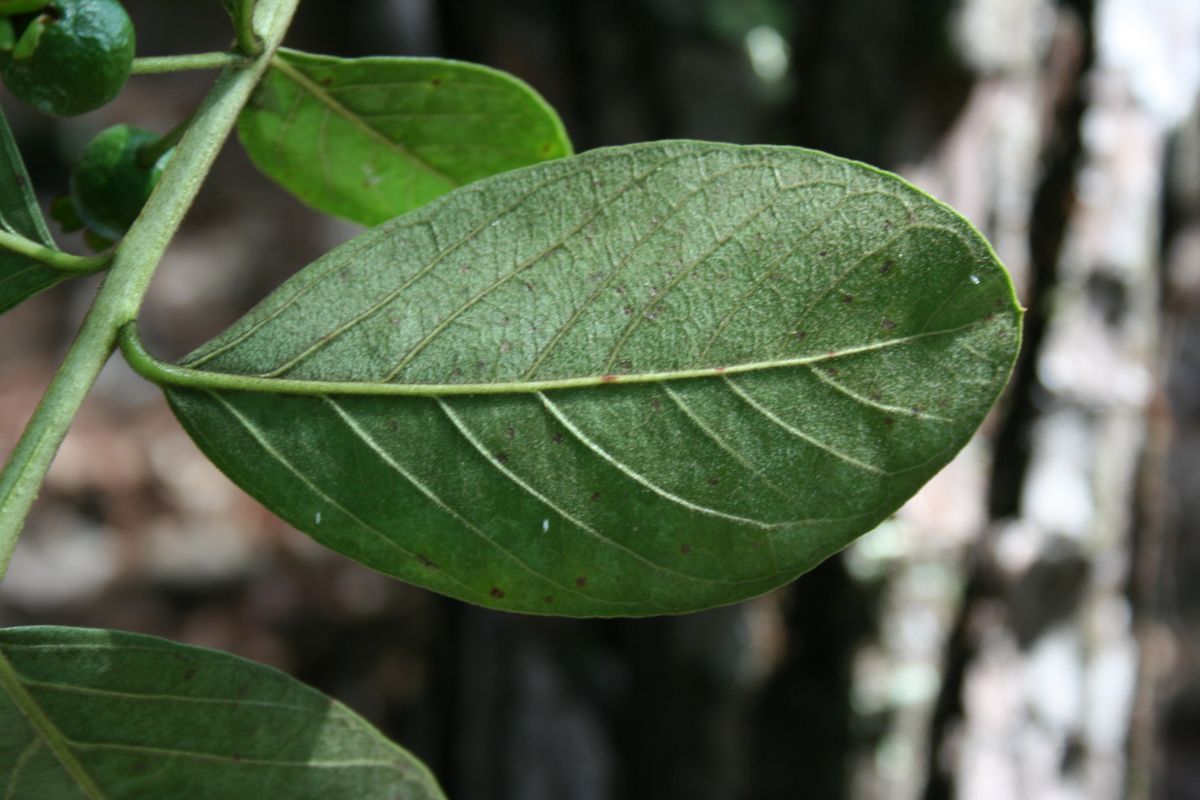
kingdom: Plantae
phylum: Tracheophyta
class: Magnoliopsida
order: Myrtales
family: Myrtaceae
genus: Psidium
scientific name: Psidium guineense
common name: Brazilian guava
